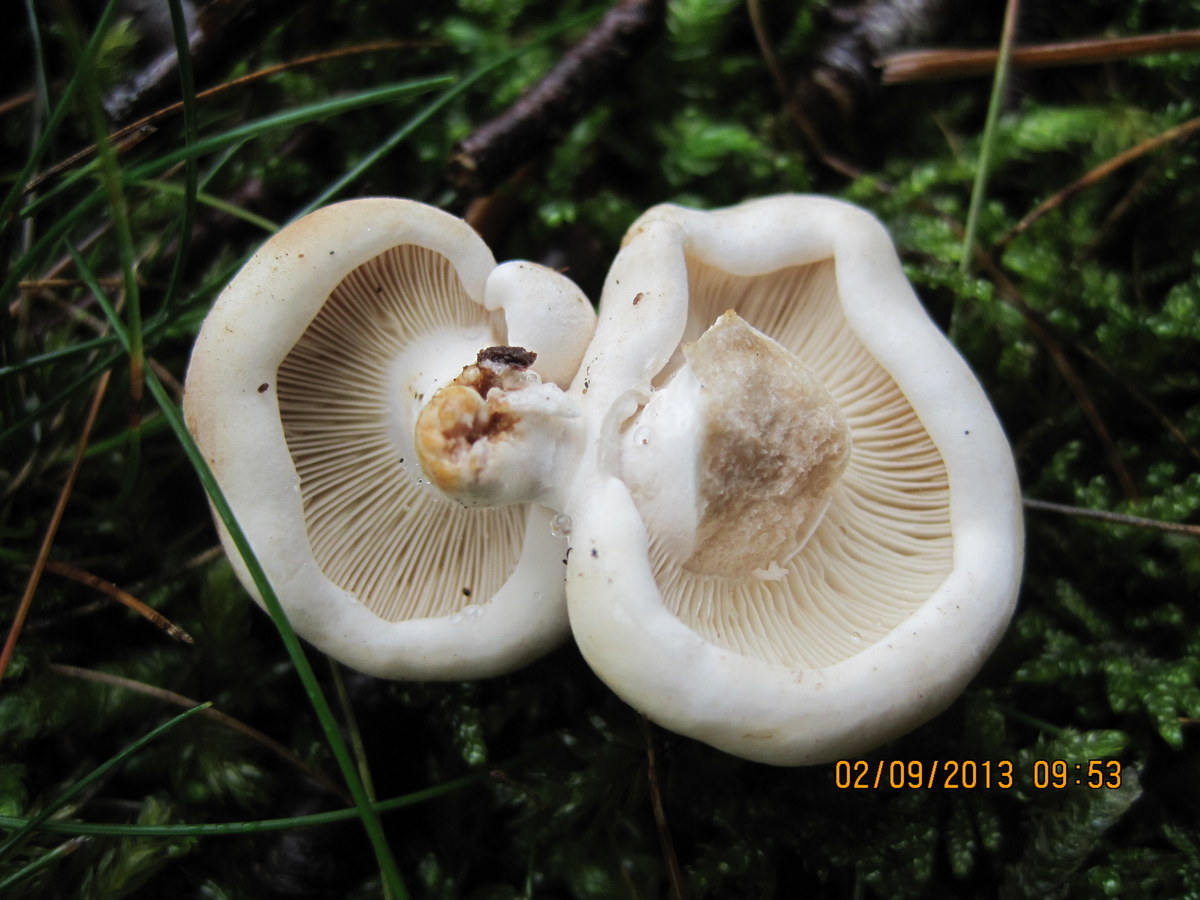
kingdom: Fungi
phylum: Basidiomycota
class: Agaricomycetes
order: Russulales
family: Russulaceae
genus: Russula
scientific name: Russula densifolia
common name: tætbladet skørhat
